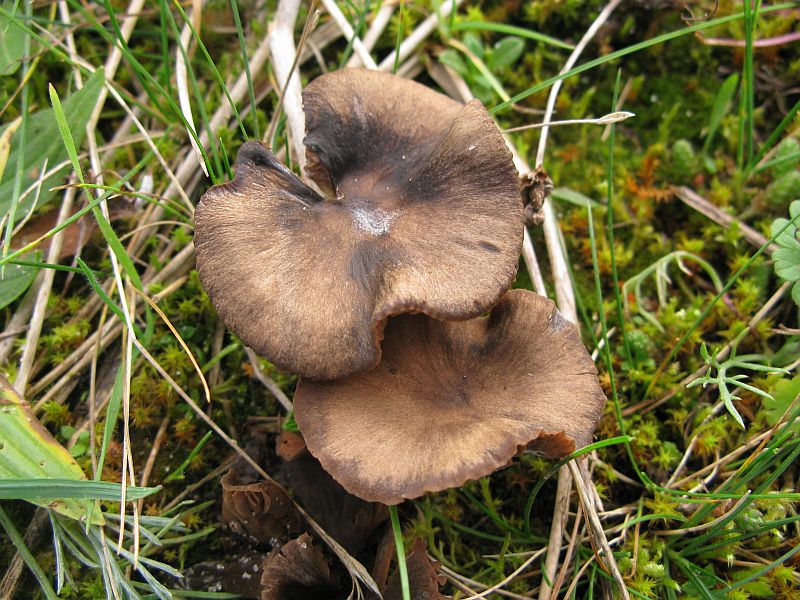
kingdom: Fungi
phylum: Basidiomycota
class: Agaricomycetes
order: Agaricales
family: Entolomataceae
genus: Entoloma
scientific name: Entoloma sericeum
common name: silkeglinsende rødblad
